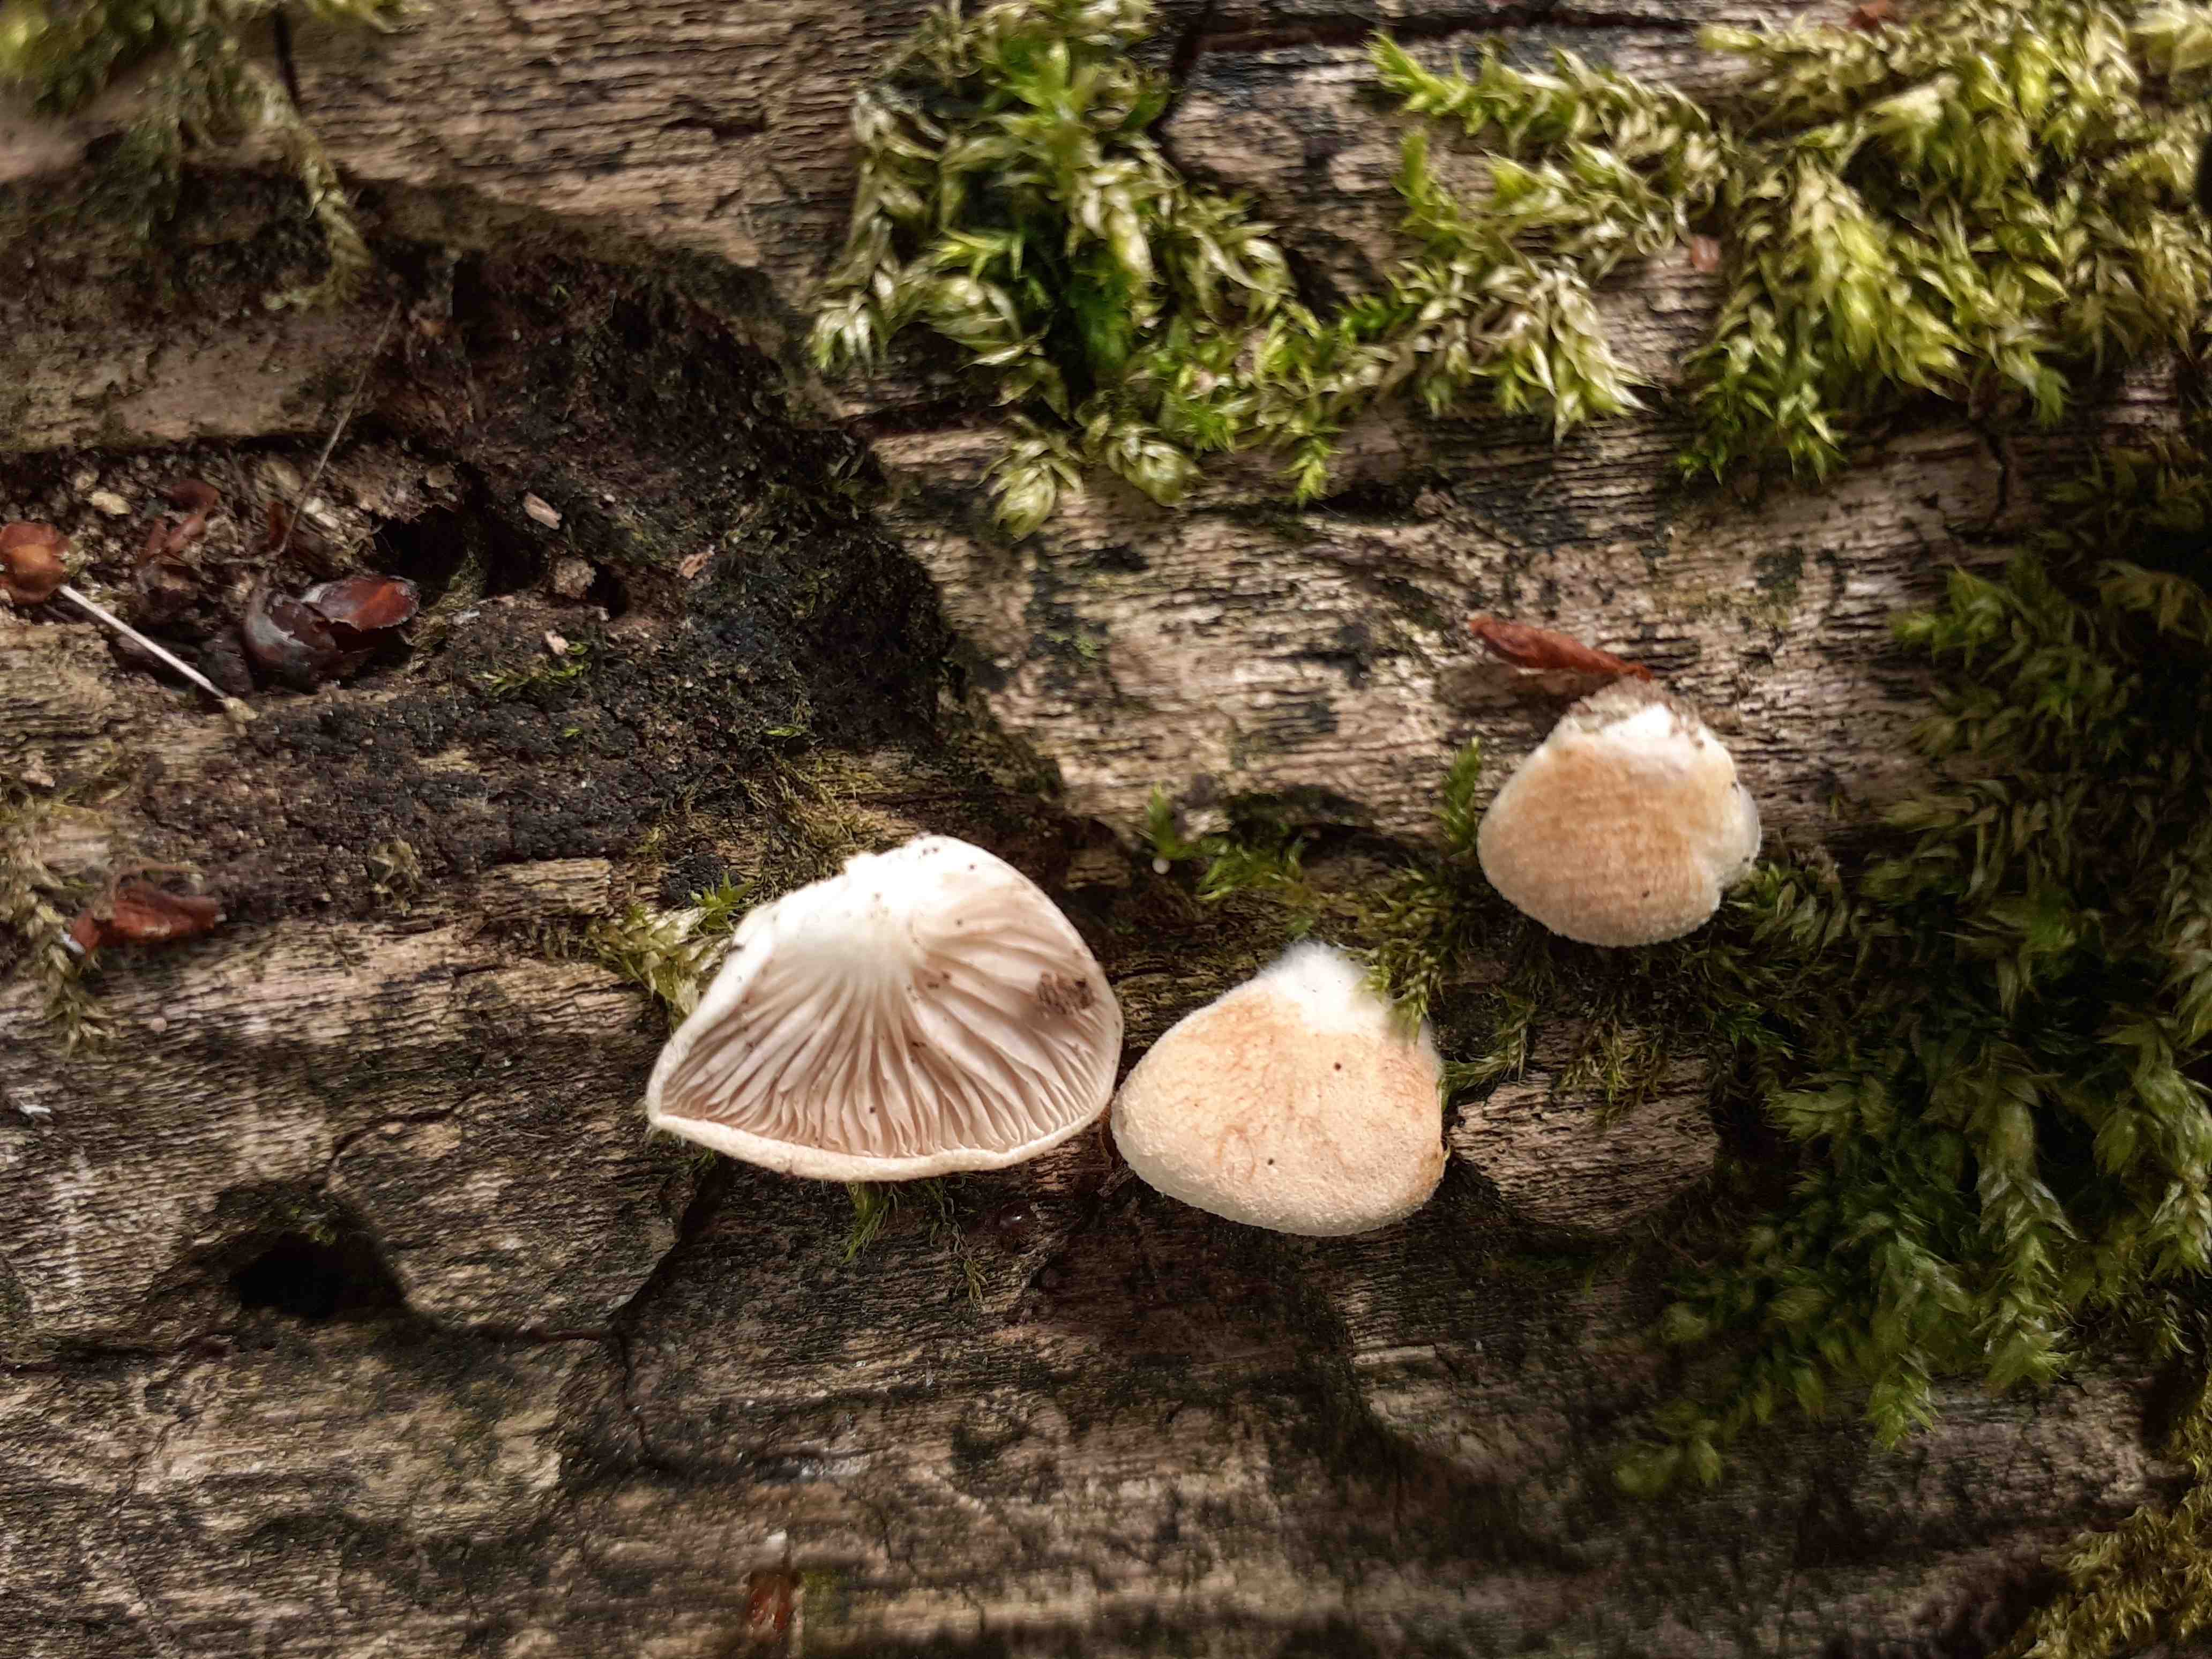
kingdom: Fungi
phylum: Basidiomycota
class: Agaricomycetes
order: Agaricales
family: Crepidotaceae
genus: Crepidotus
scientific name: Crepidotus calolepis
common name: småskællet muslingesvamp
